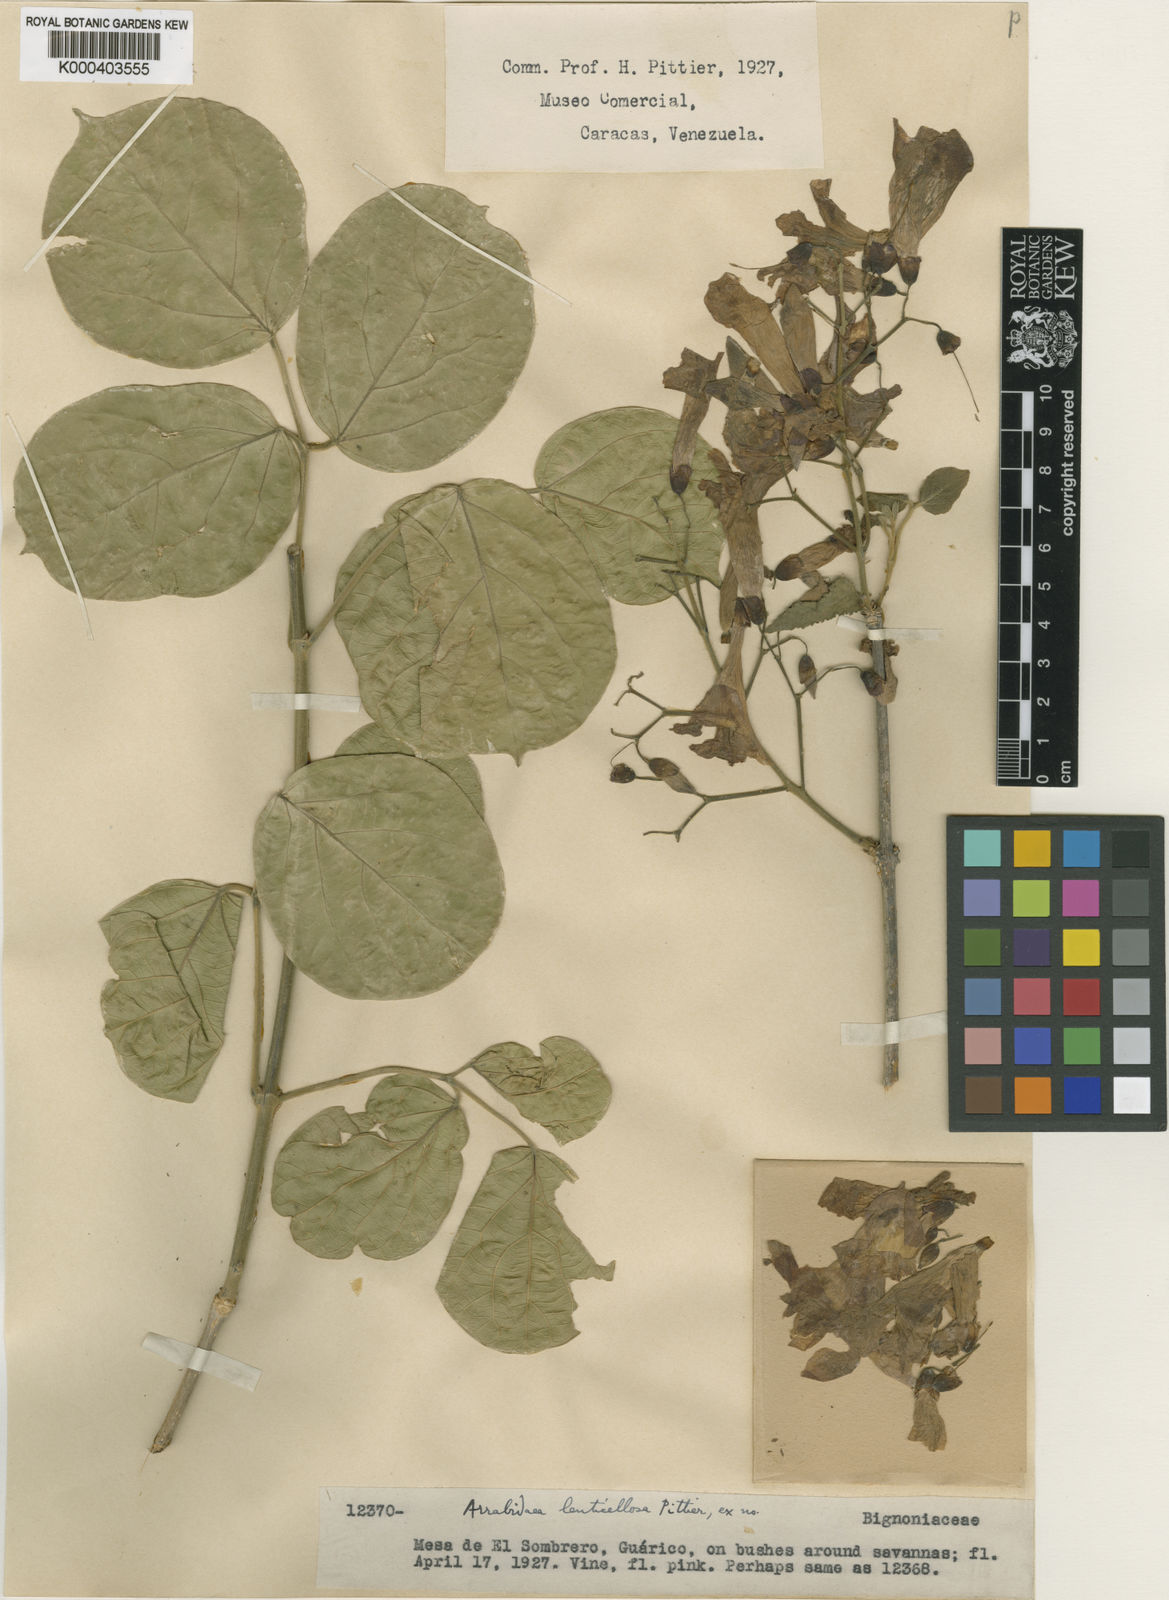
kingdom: Plantae
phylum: Tracheophyta
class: Magnoliopsida
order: Lamiales
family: Bignoniaceae
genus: Tanaecium
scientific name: Tanaecium
